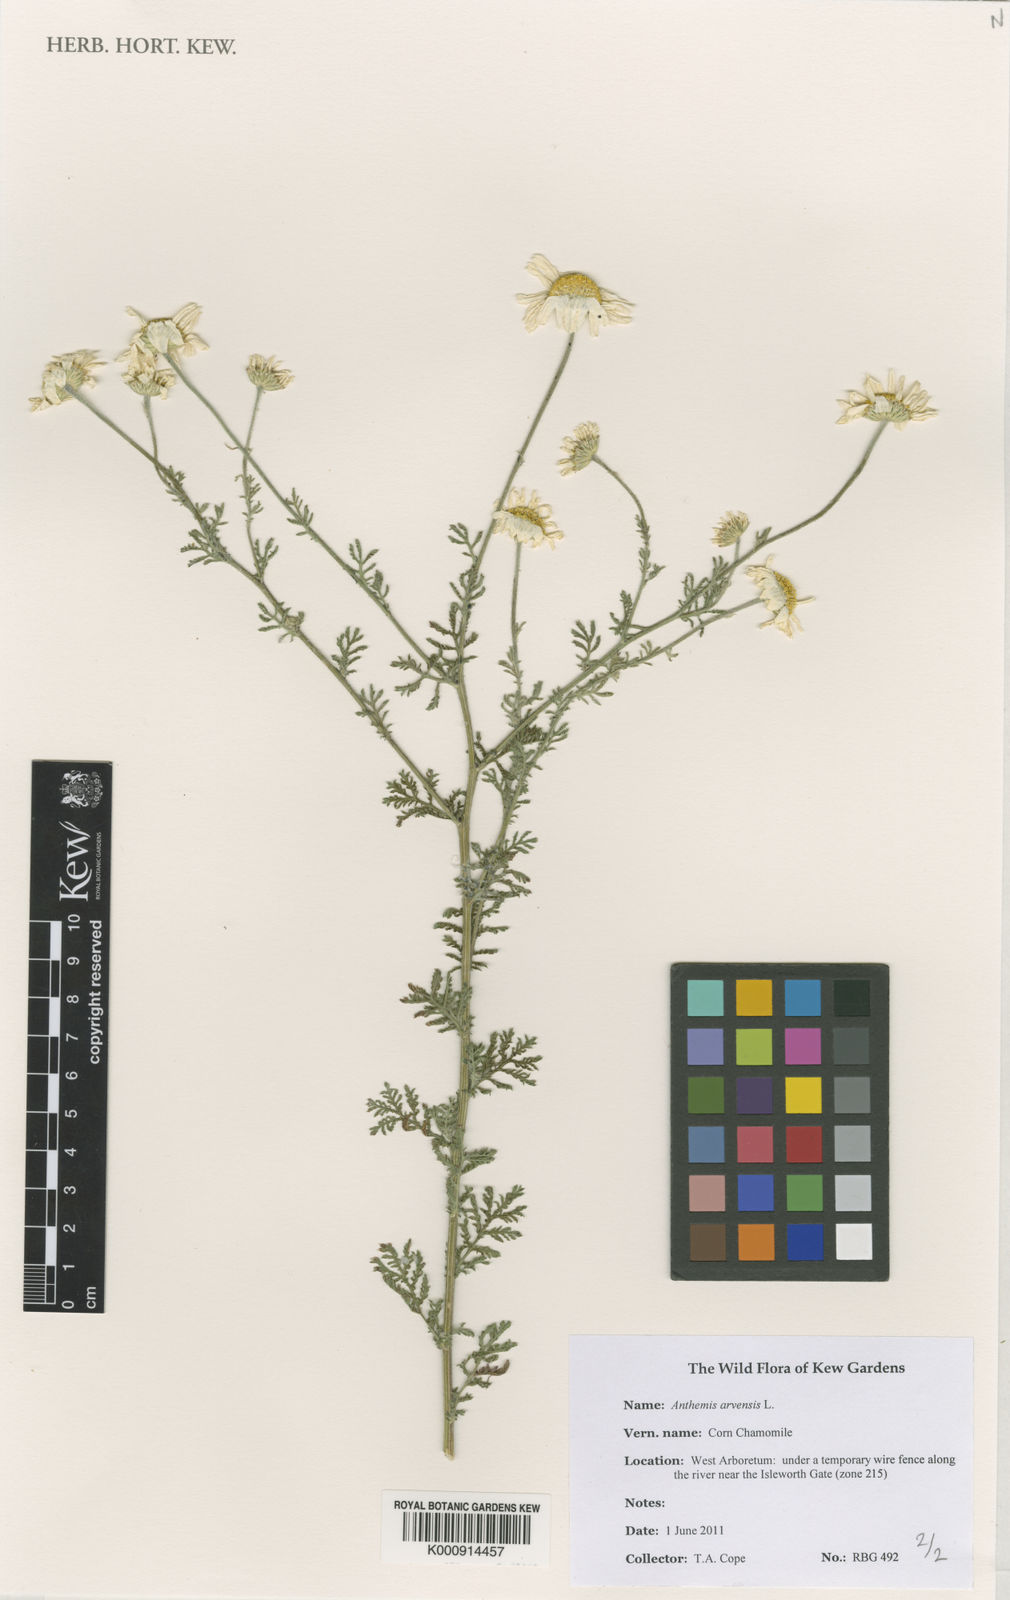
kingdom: Plantae
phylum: Tracheophyta
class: Magnoliopsida
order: Asterales
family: Asteraceae
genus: Anthemis
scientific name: Anthemis arvensis
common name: Corn chamomile
